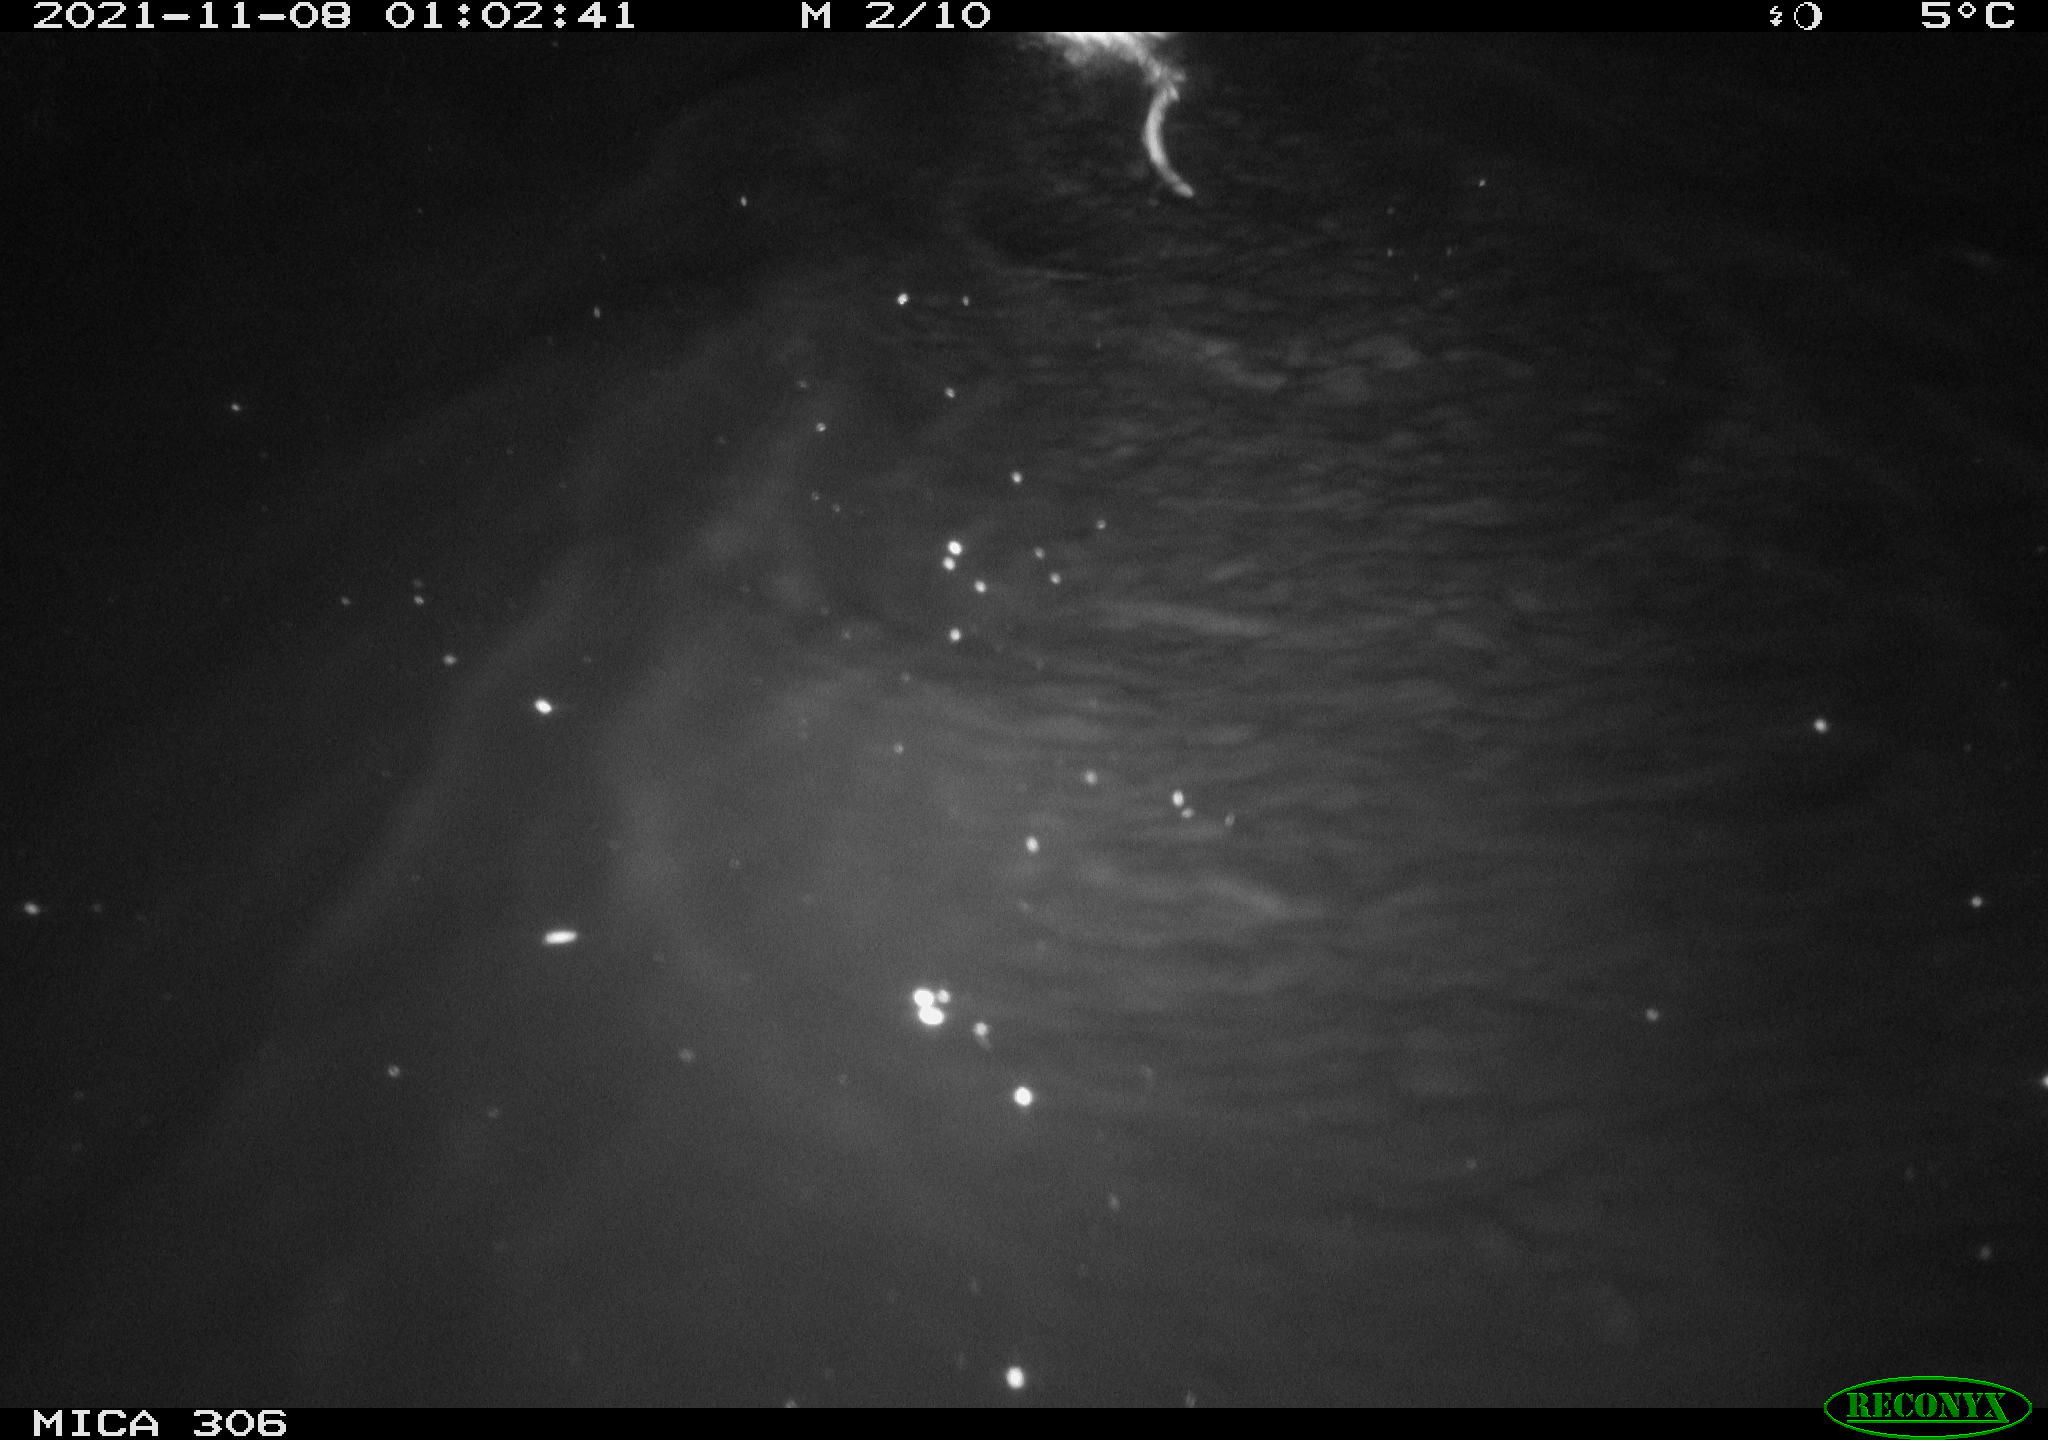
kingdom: Animalia
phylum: Chordata
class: Mammalia
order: Rodentia
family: Cricetidae
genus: Ondatra
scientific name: Ondatra zibethicus
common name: Muskrat
